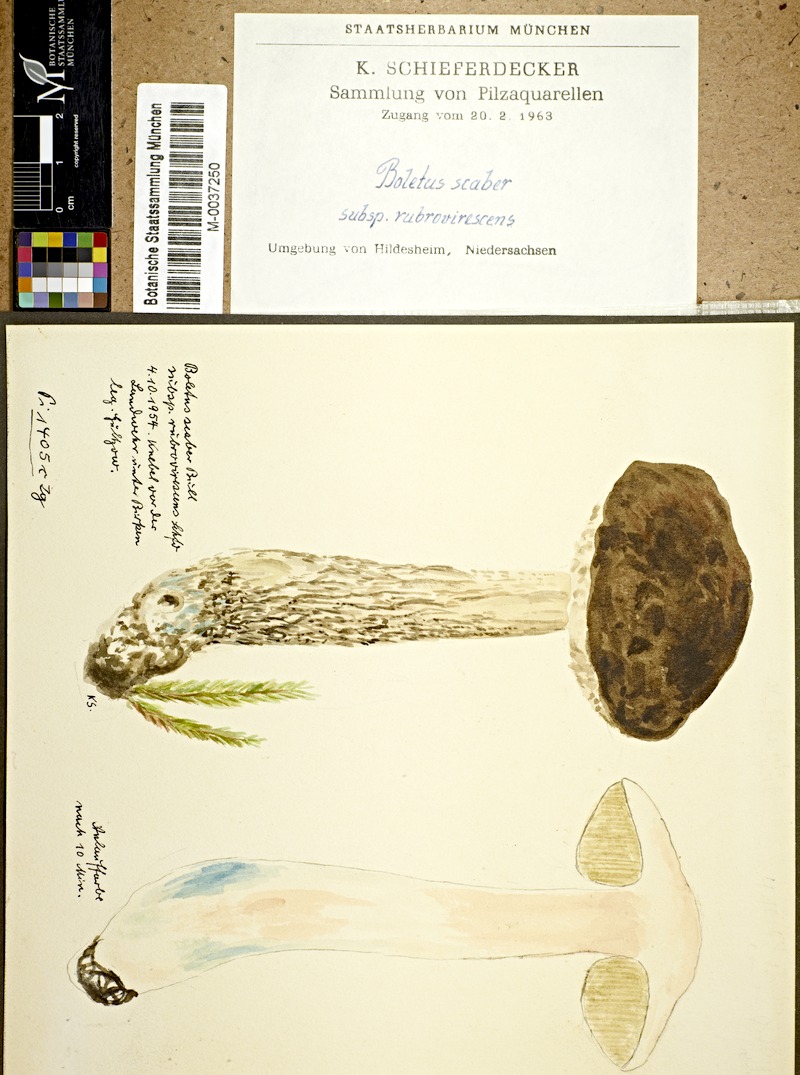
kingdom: Fungi
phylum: Basidiomycota
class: Agaricomycetes
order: Boletales
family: Boletaceae
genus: Leccinum
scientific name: Leccinum scabrum
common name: Blushing bolete
